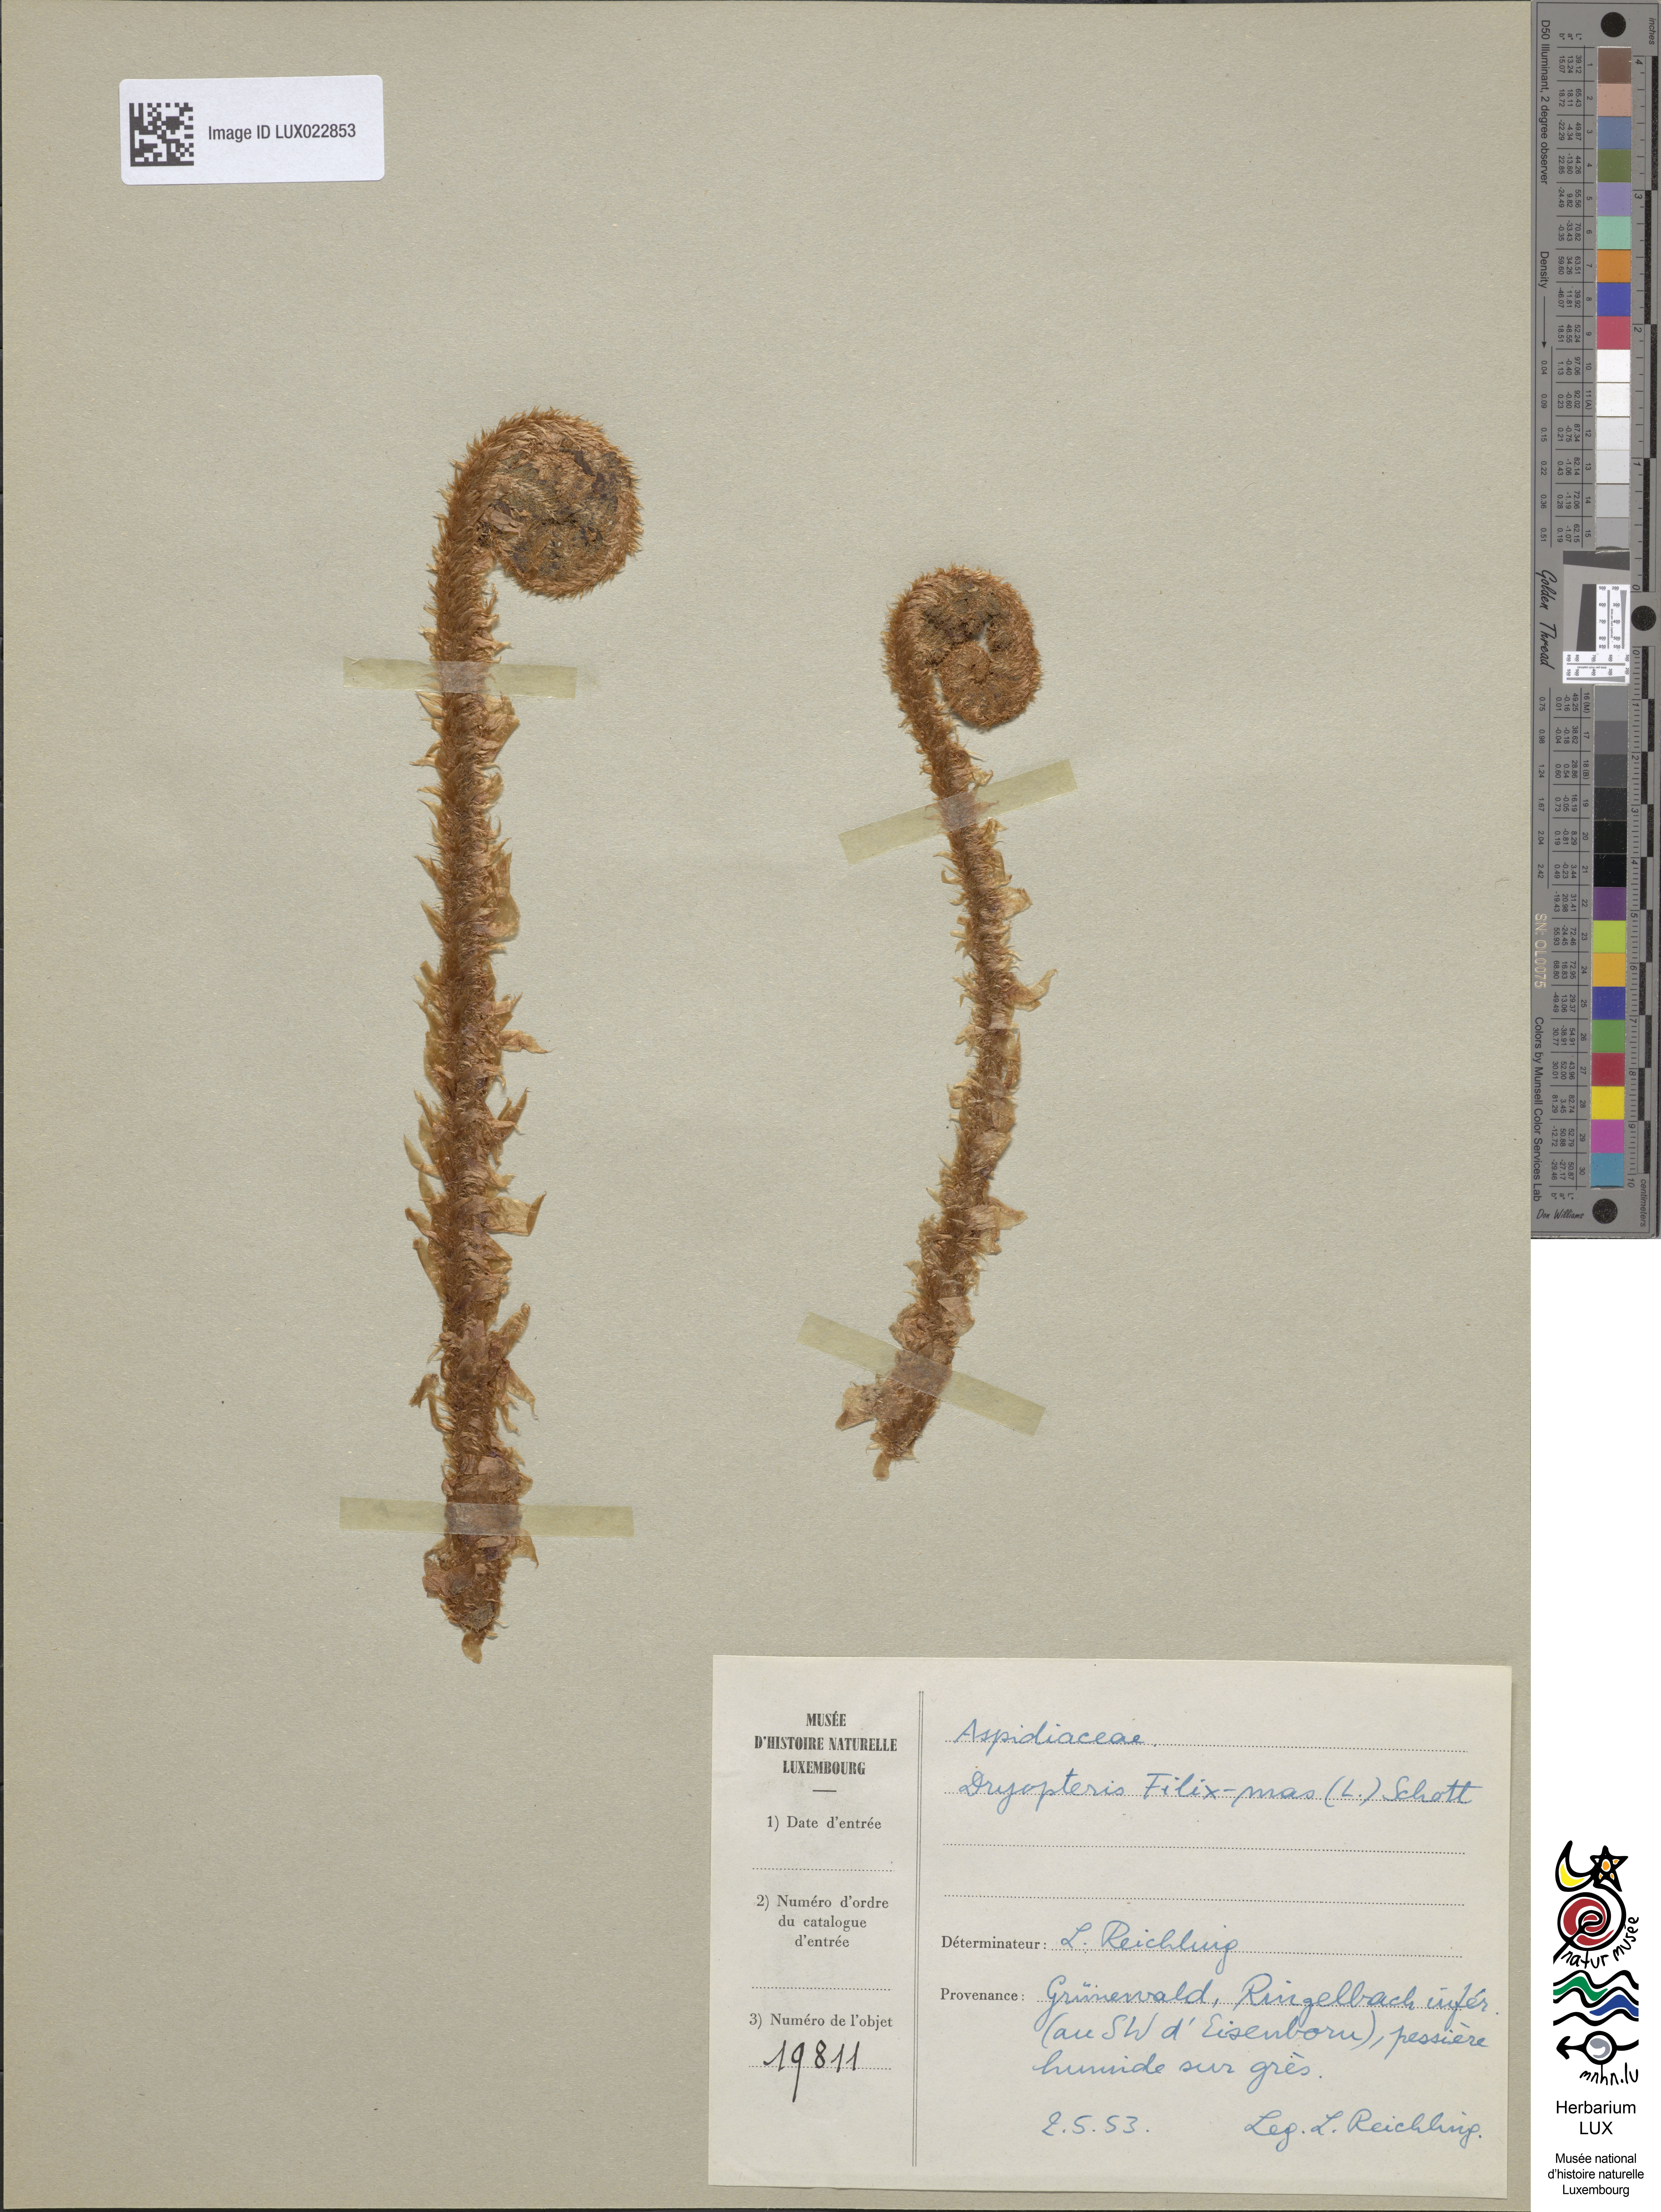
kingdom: Plantae
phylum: Tracheophyta
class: Polypodiopsida
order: Polypodiales
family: Dryopteridaceae
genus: Dryopteris
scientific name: Dryopteris filix-mas
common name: Male fern
